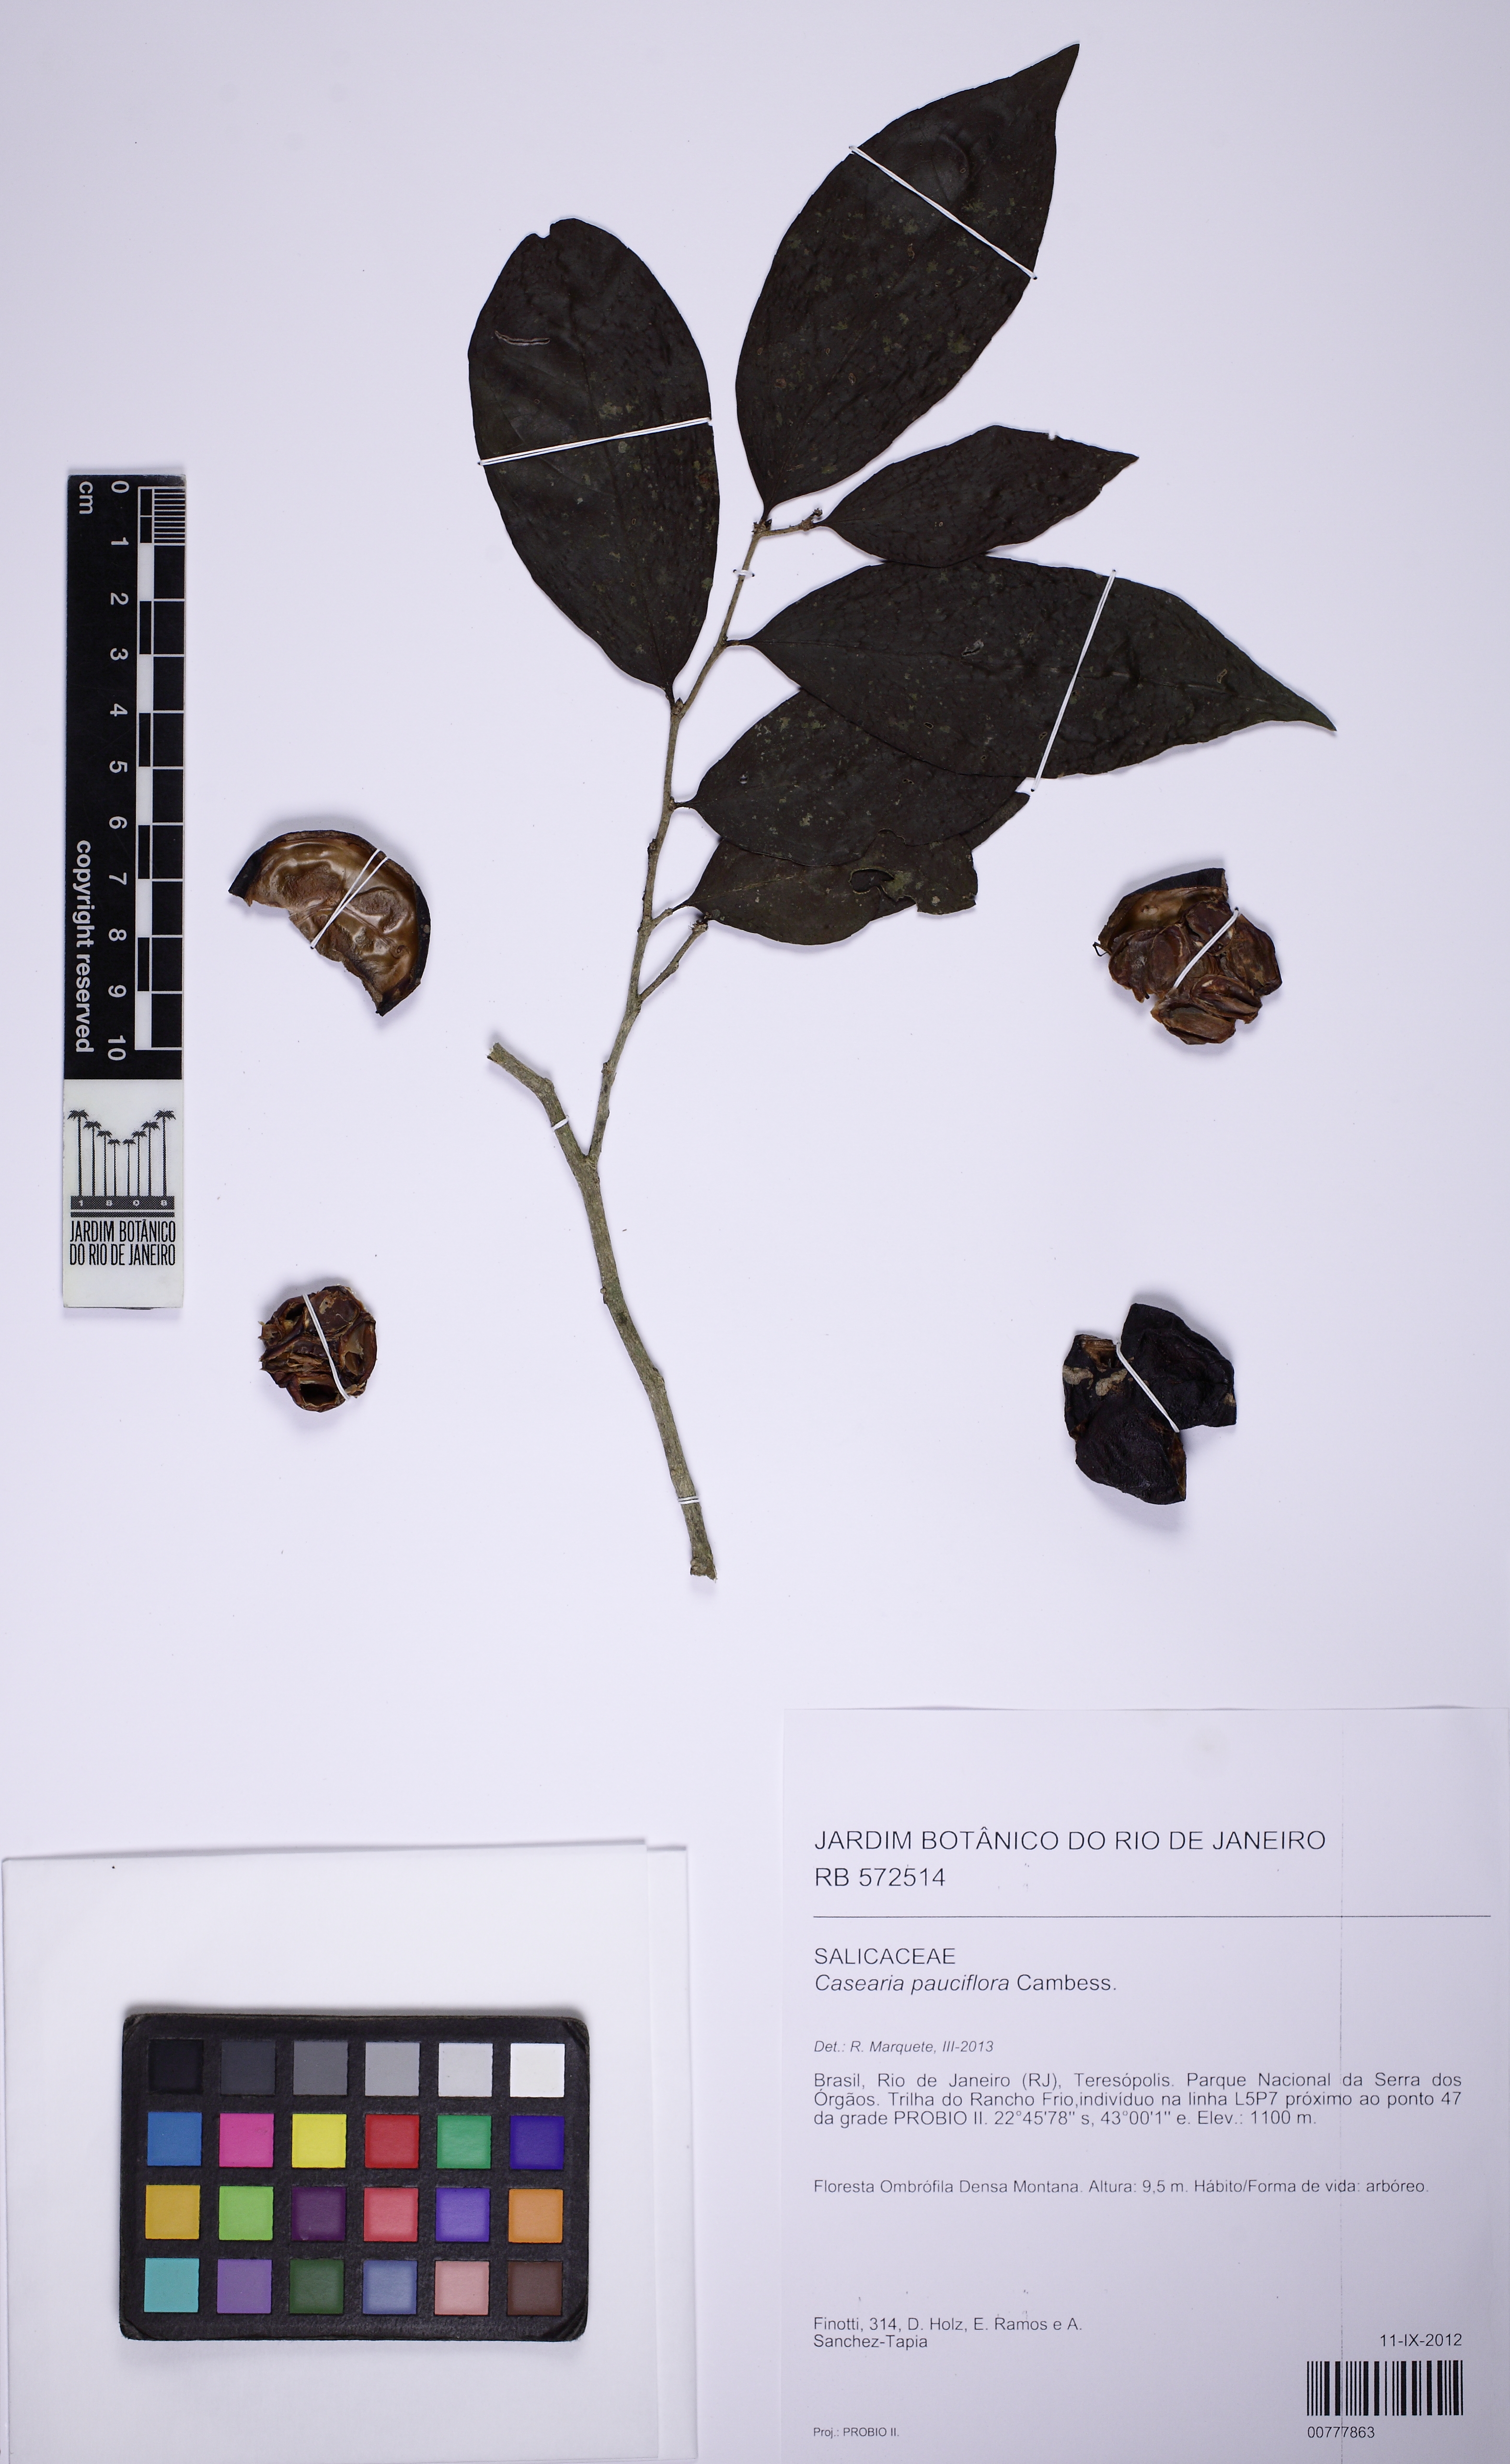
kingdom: Plantae
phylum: Tracheophyta
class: Magnoliopsida
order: Malpighiales
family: Salicaceae
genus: Casearia
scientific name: Casearia pauciflora
